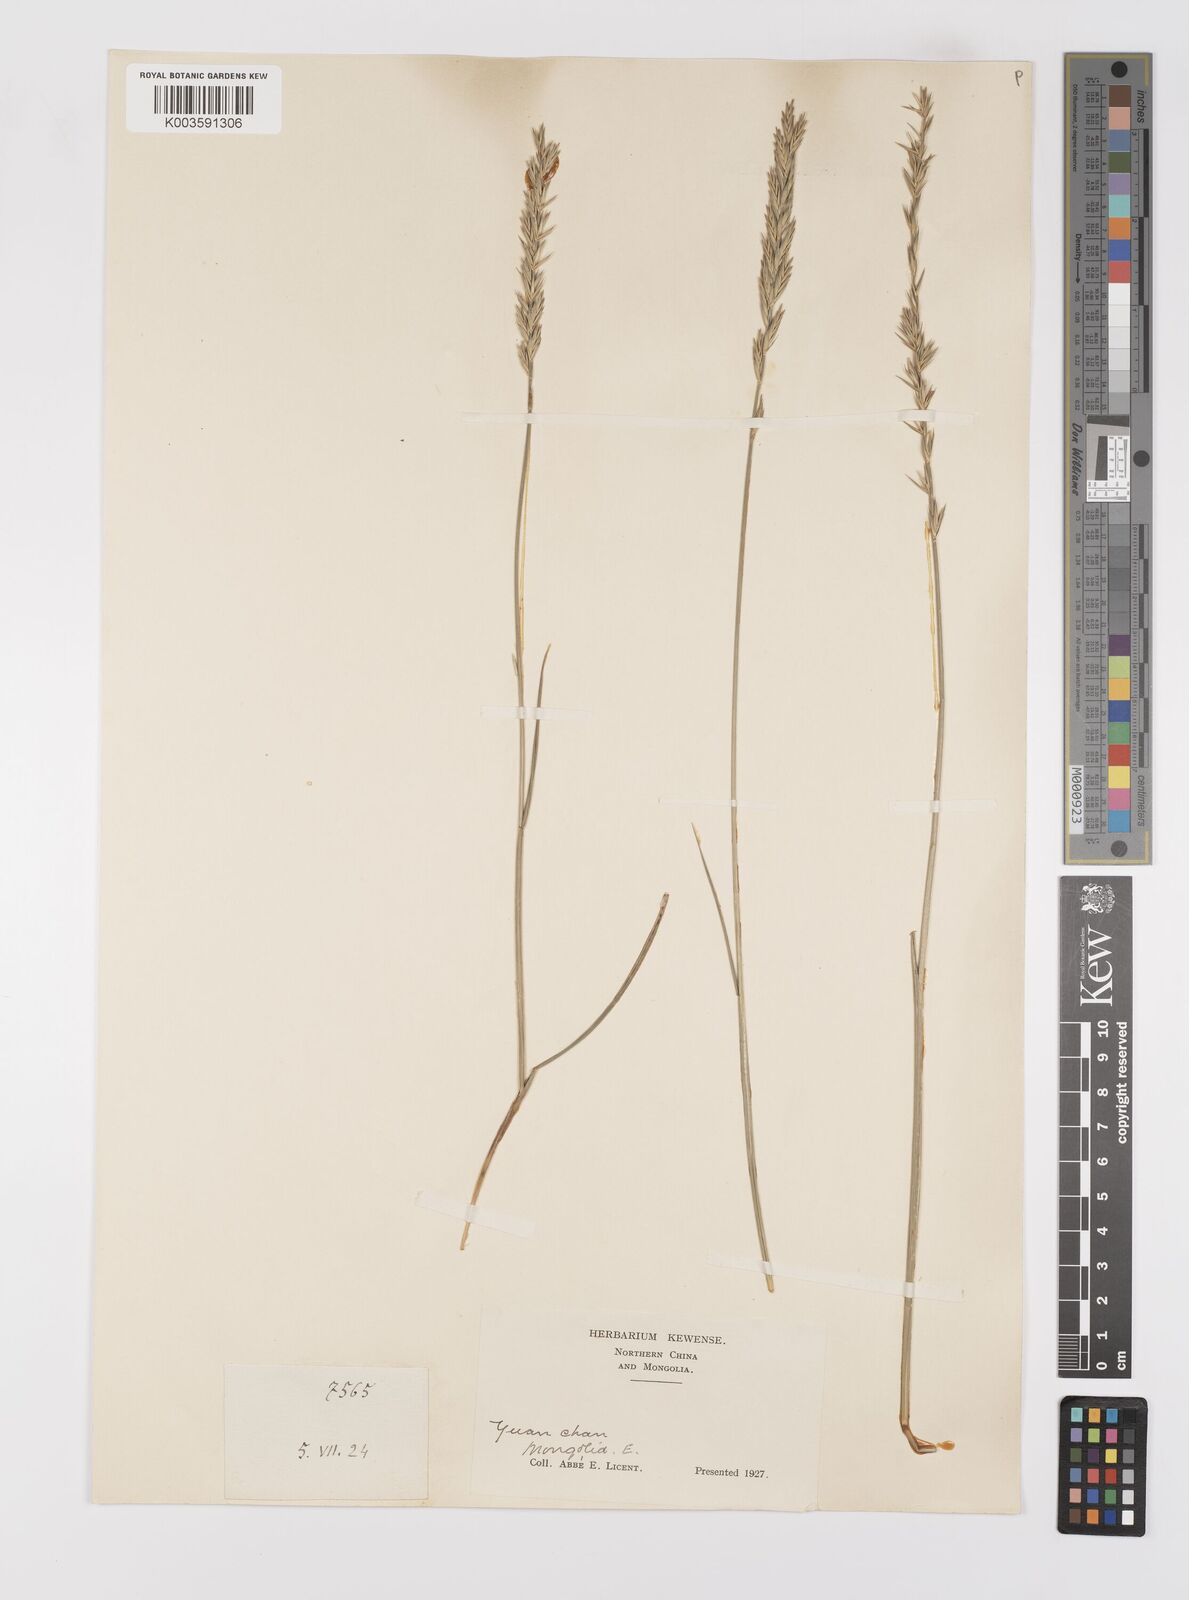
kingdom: Plantae
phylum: Tracheophyta
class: Liliopsida
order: Poales
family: Poaceae
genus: Leymus
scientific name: Leymus
